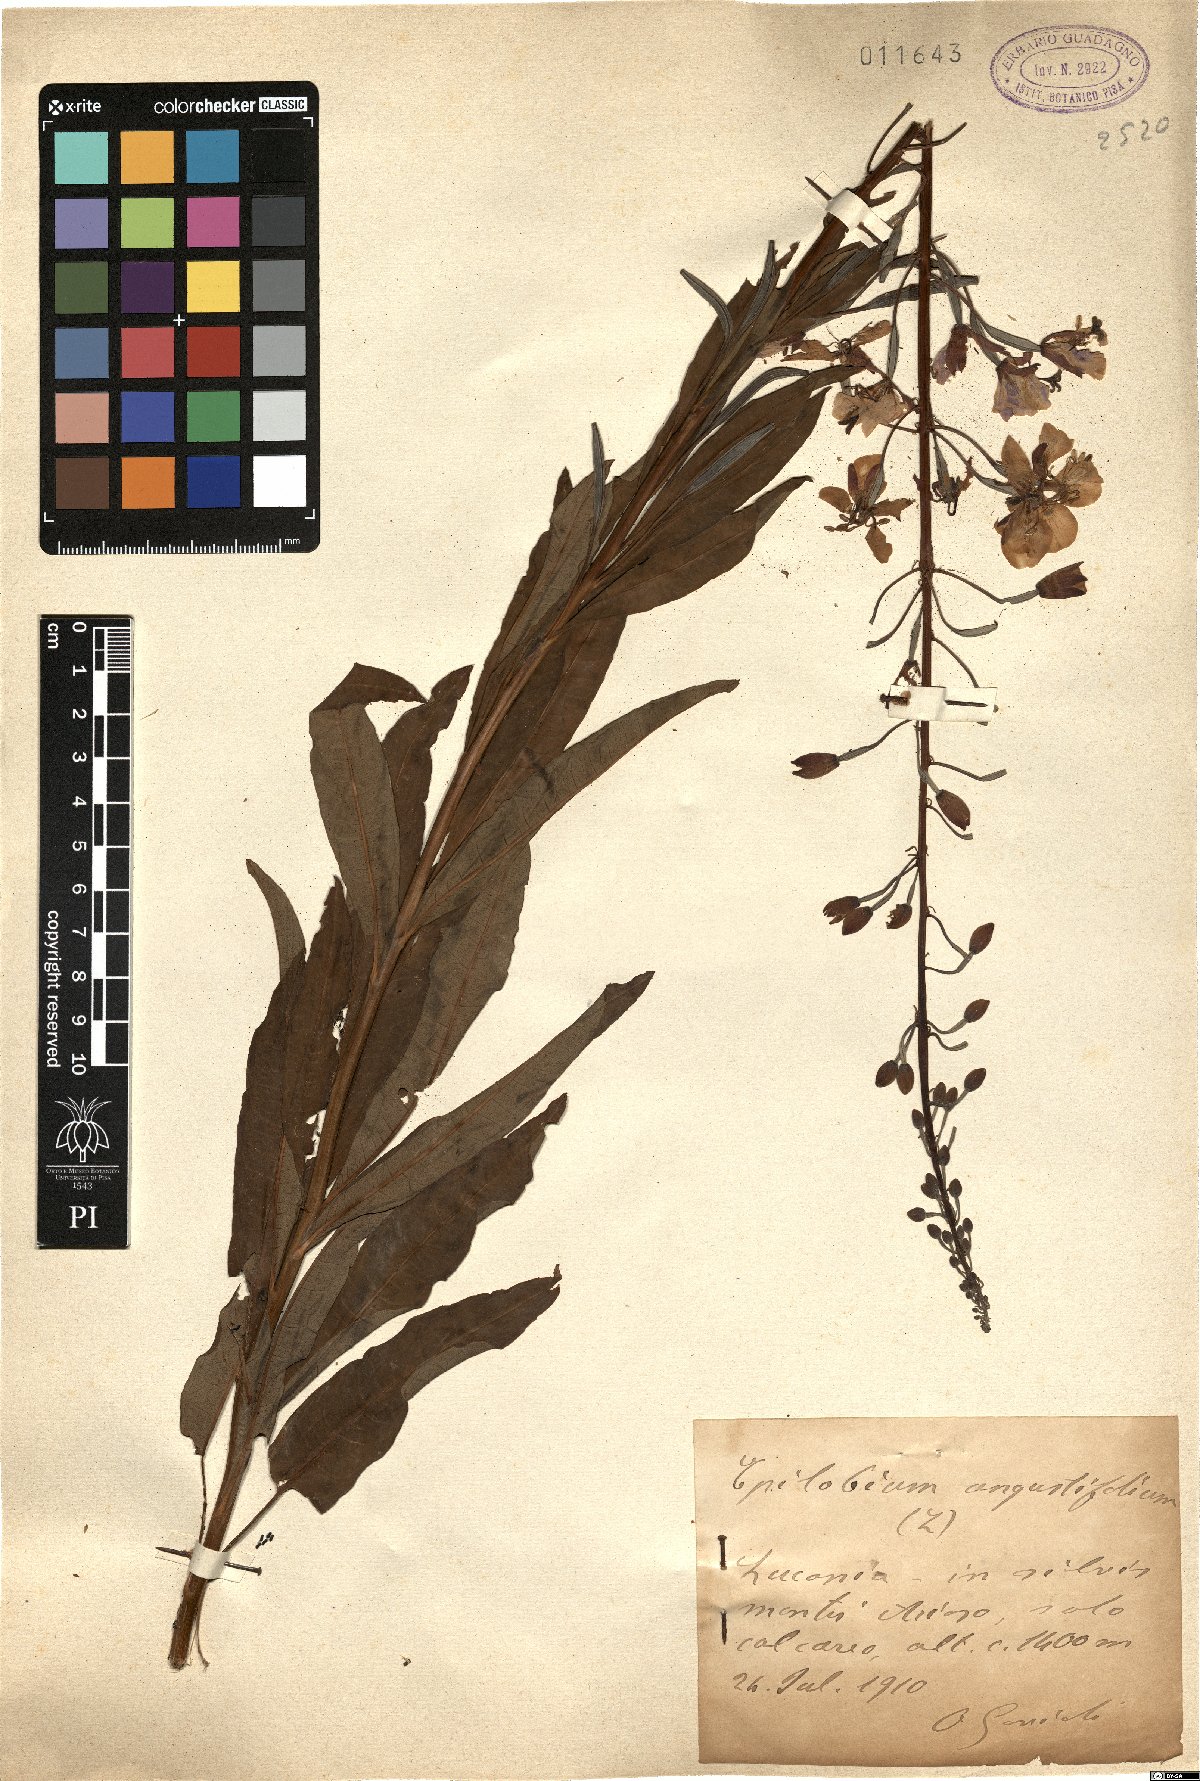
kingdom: Plantae
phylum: Tracheophyta
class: Magnoliopsida
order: Myrtales
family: Onagraceae
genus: Chamaenerion
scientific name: Chamaenerion angustifolium
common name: Fireweed
